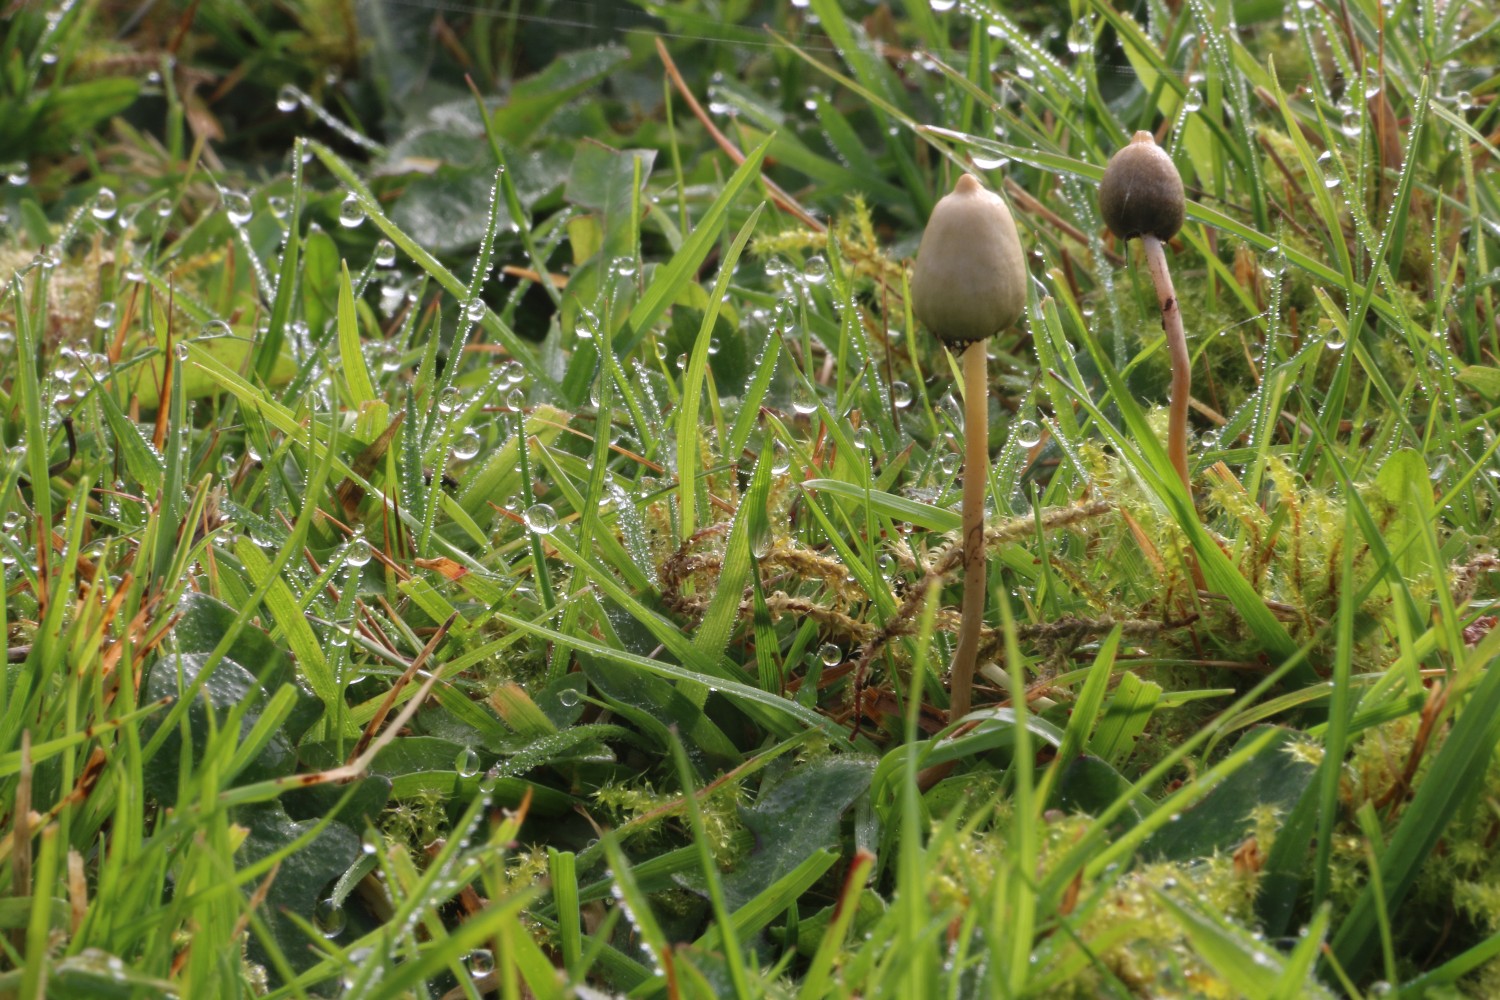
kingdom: Fungi
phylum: Basidiomycota
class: Agaricomycetes
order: Agaricales
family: Hymenogastraceae
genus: Psilocybe
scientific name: Psilocybe semilanceata
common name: spids nøgenhat
